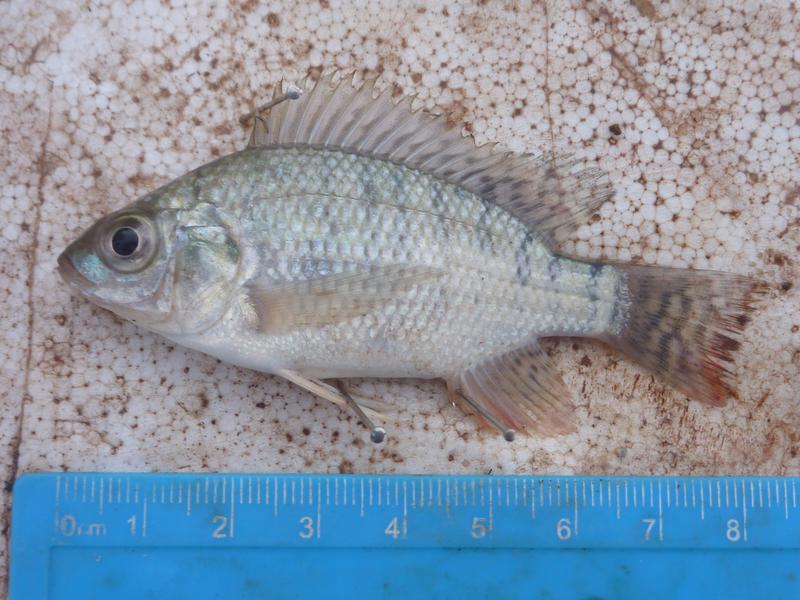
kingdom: Animalia
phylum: Chordata
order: Perciformes
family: Cichlidae
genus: Oreochromis
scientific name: Oreochromis niloticus
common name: Nile tilapia
